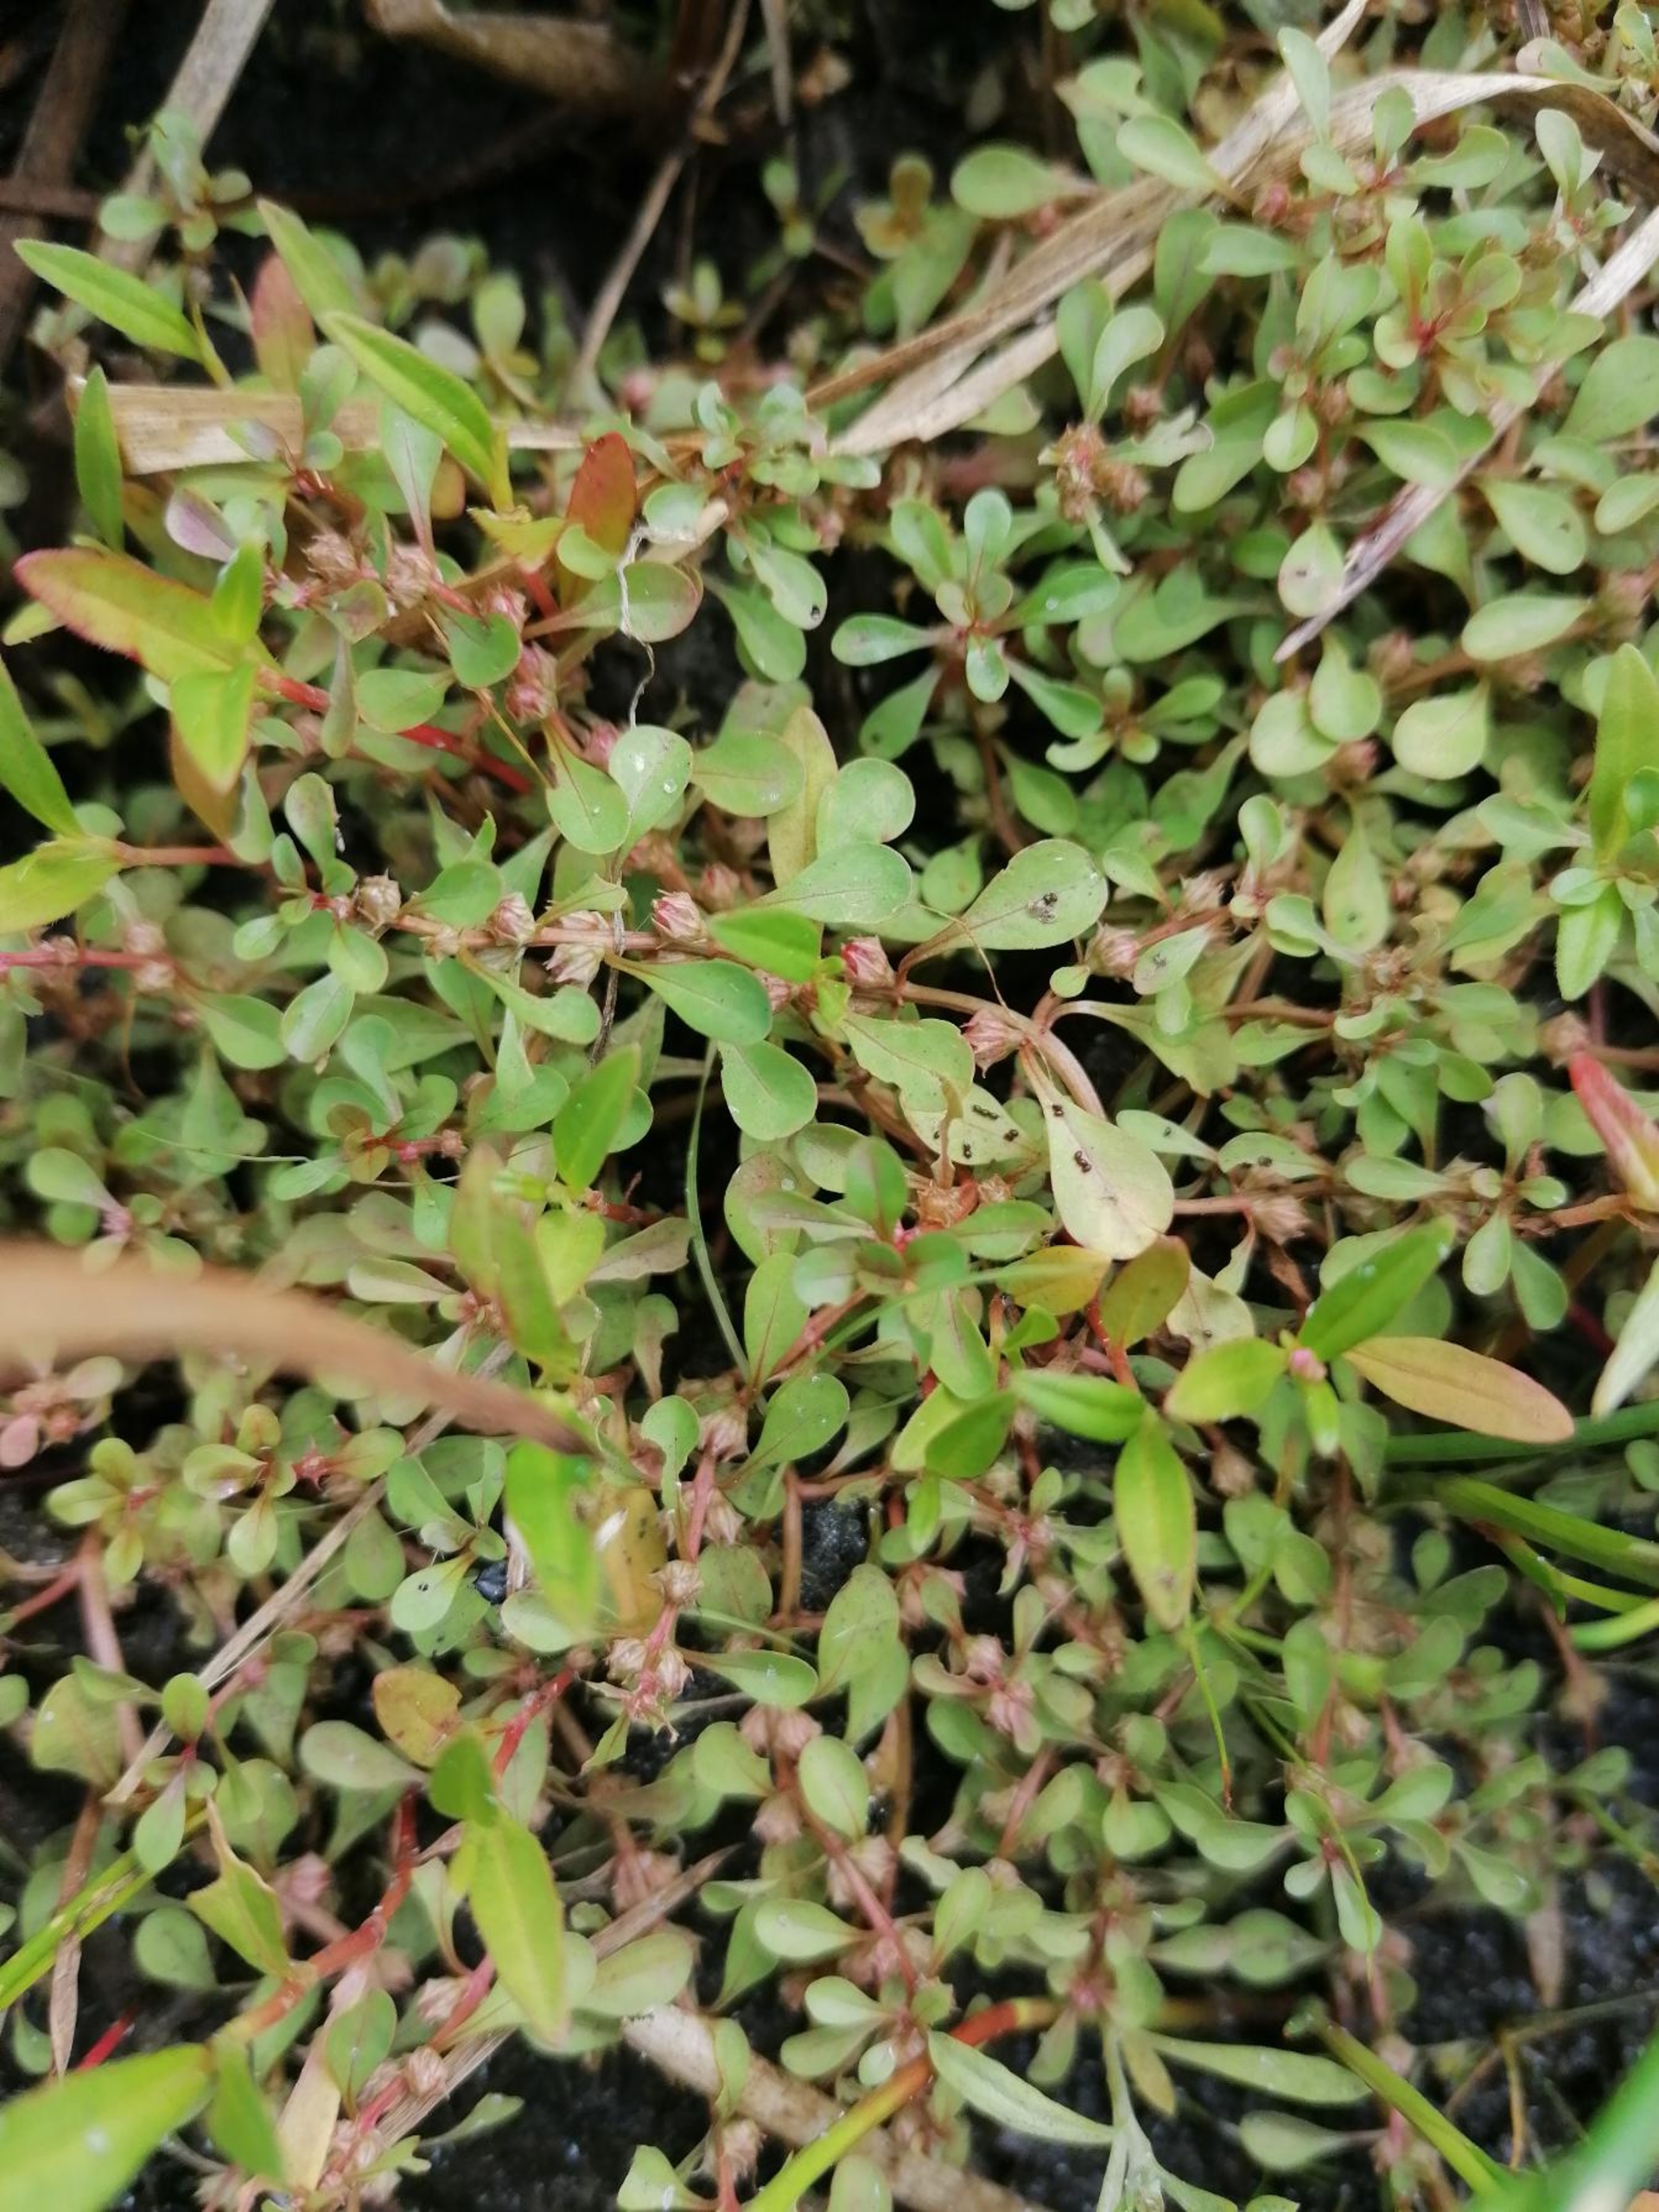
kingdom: Plantae
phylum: Tracheophyta
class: Magnoliopsida
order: Myrtales
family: Lythraceae
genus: Lythrum
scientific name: Lythrum portula
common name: Vandportulak
